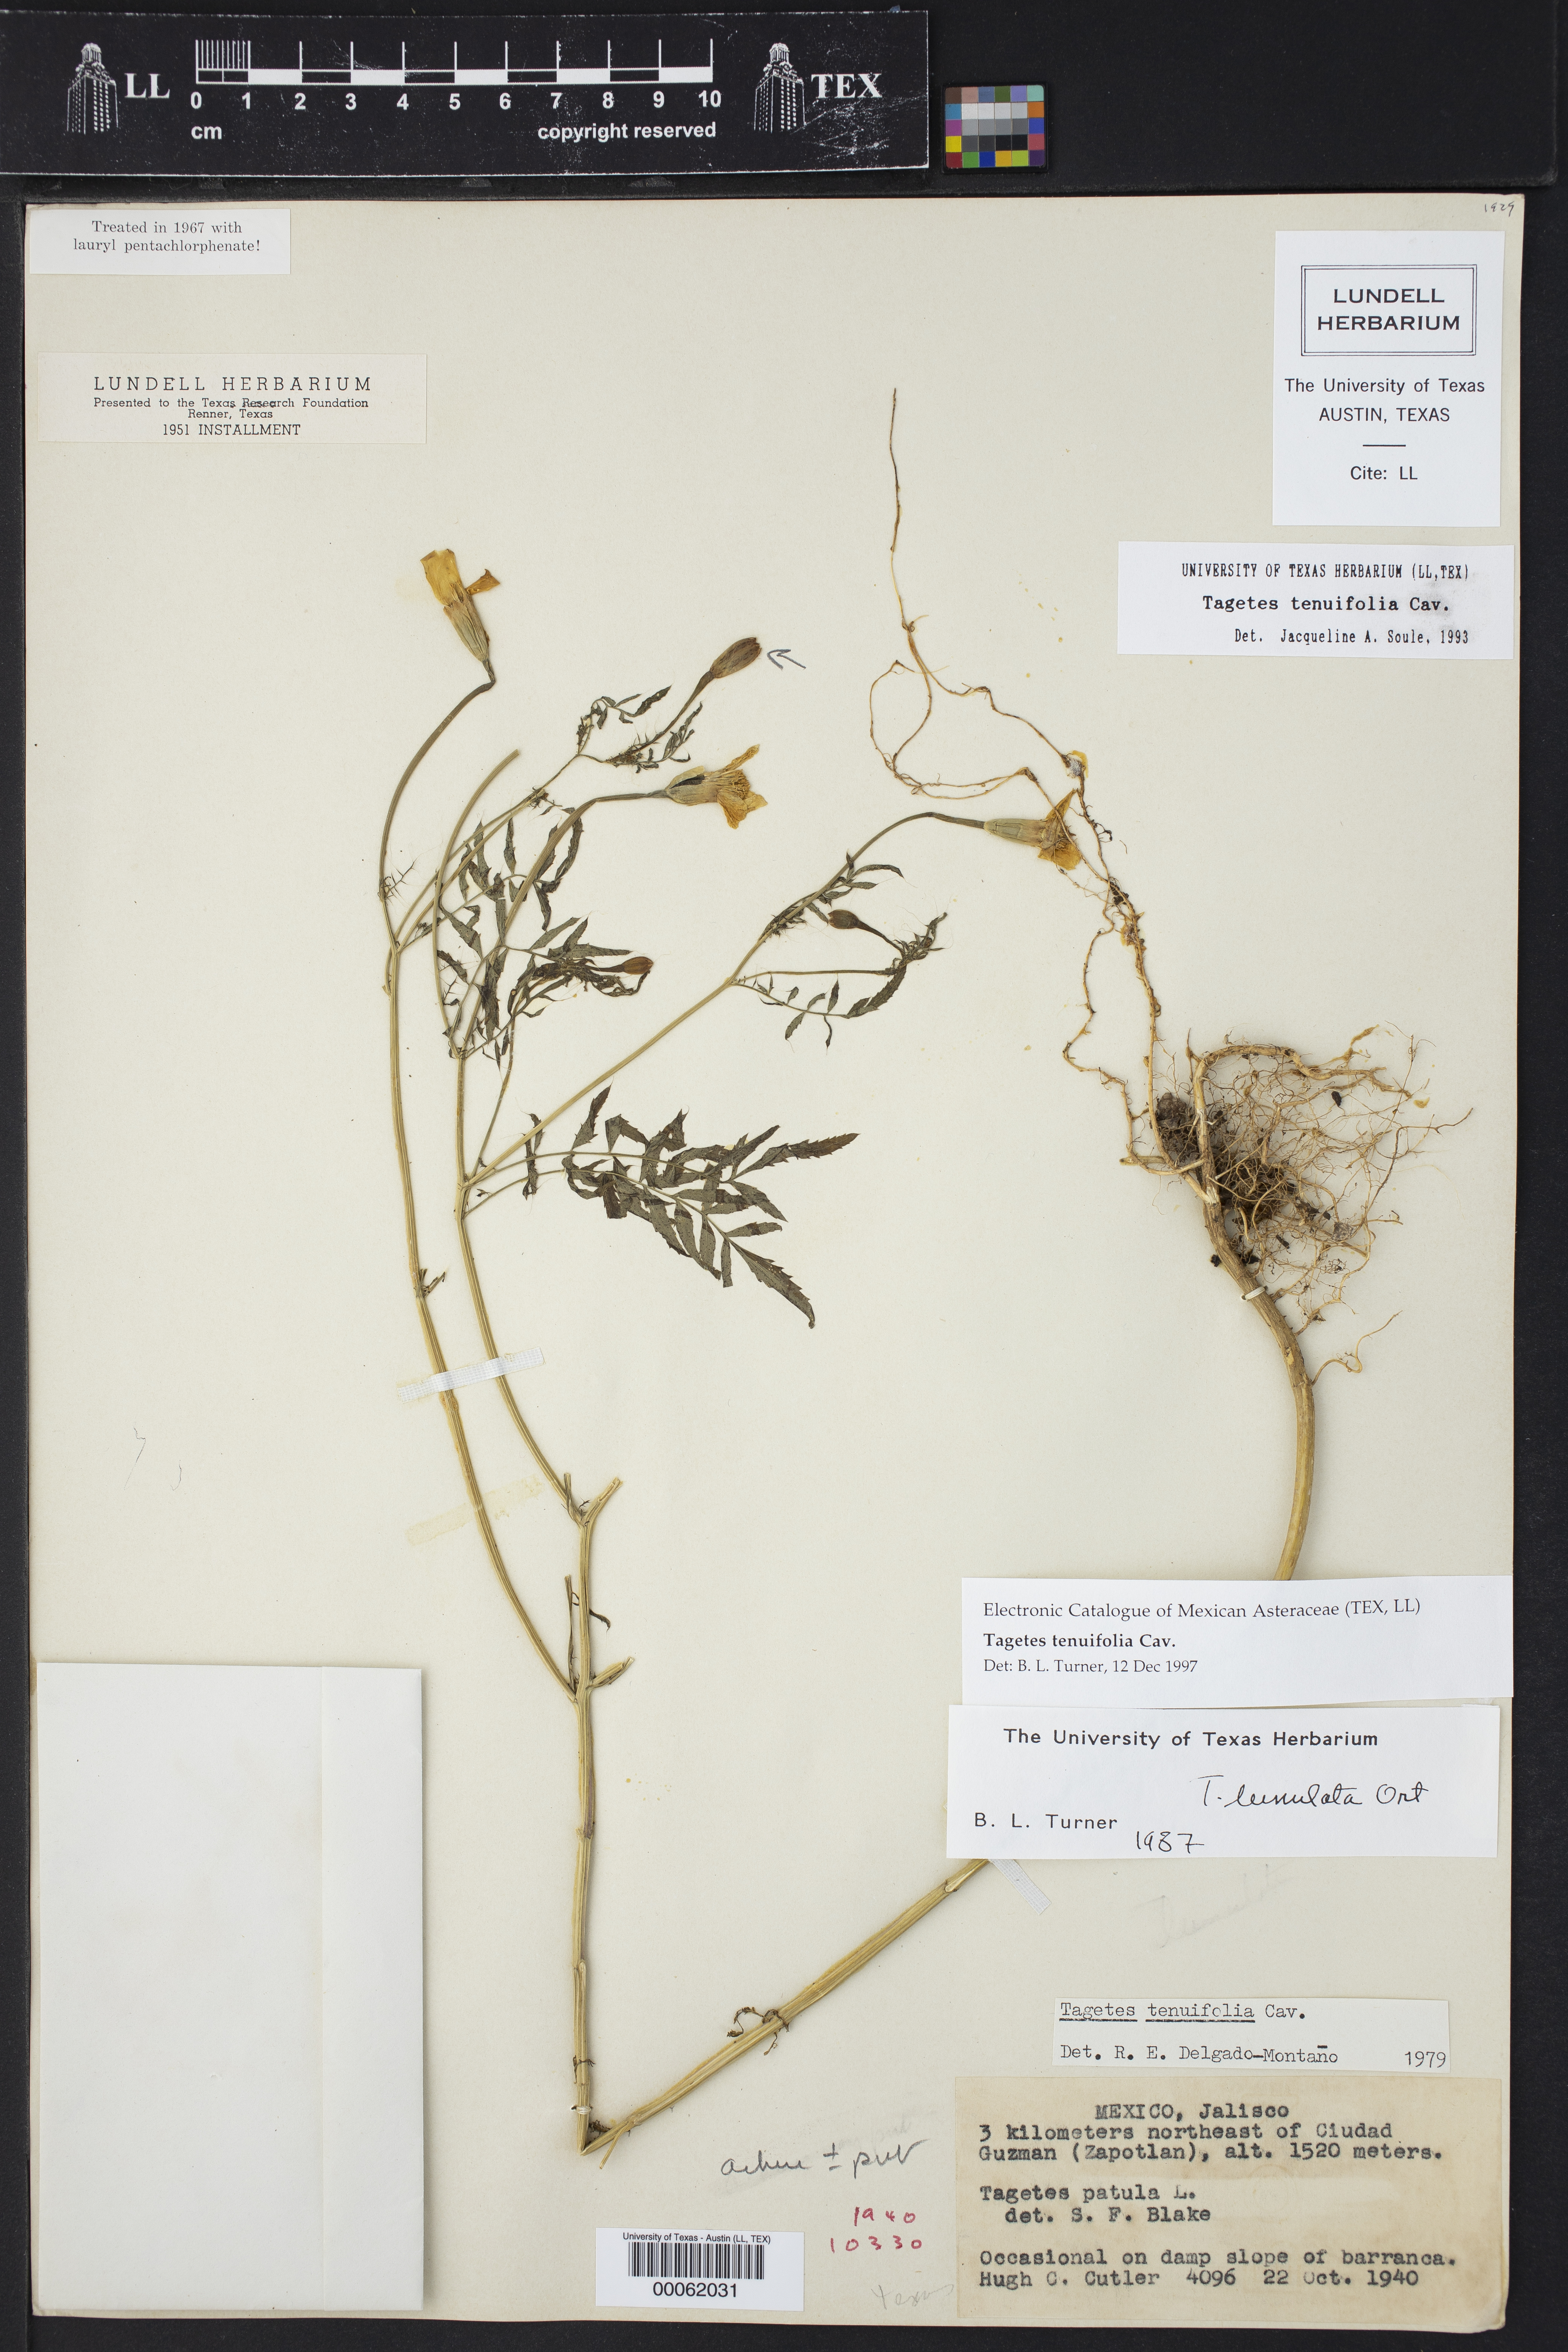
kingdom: Plantae
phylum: Tracheophyta
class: Magnoliopsida
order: Asterales
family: Asteraceae
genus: Tagetes
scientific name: Tagetes tenuifolia
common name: Signet marigold
